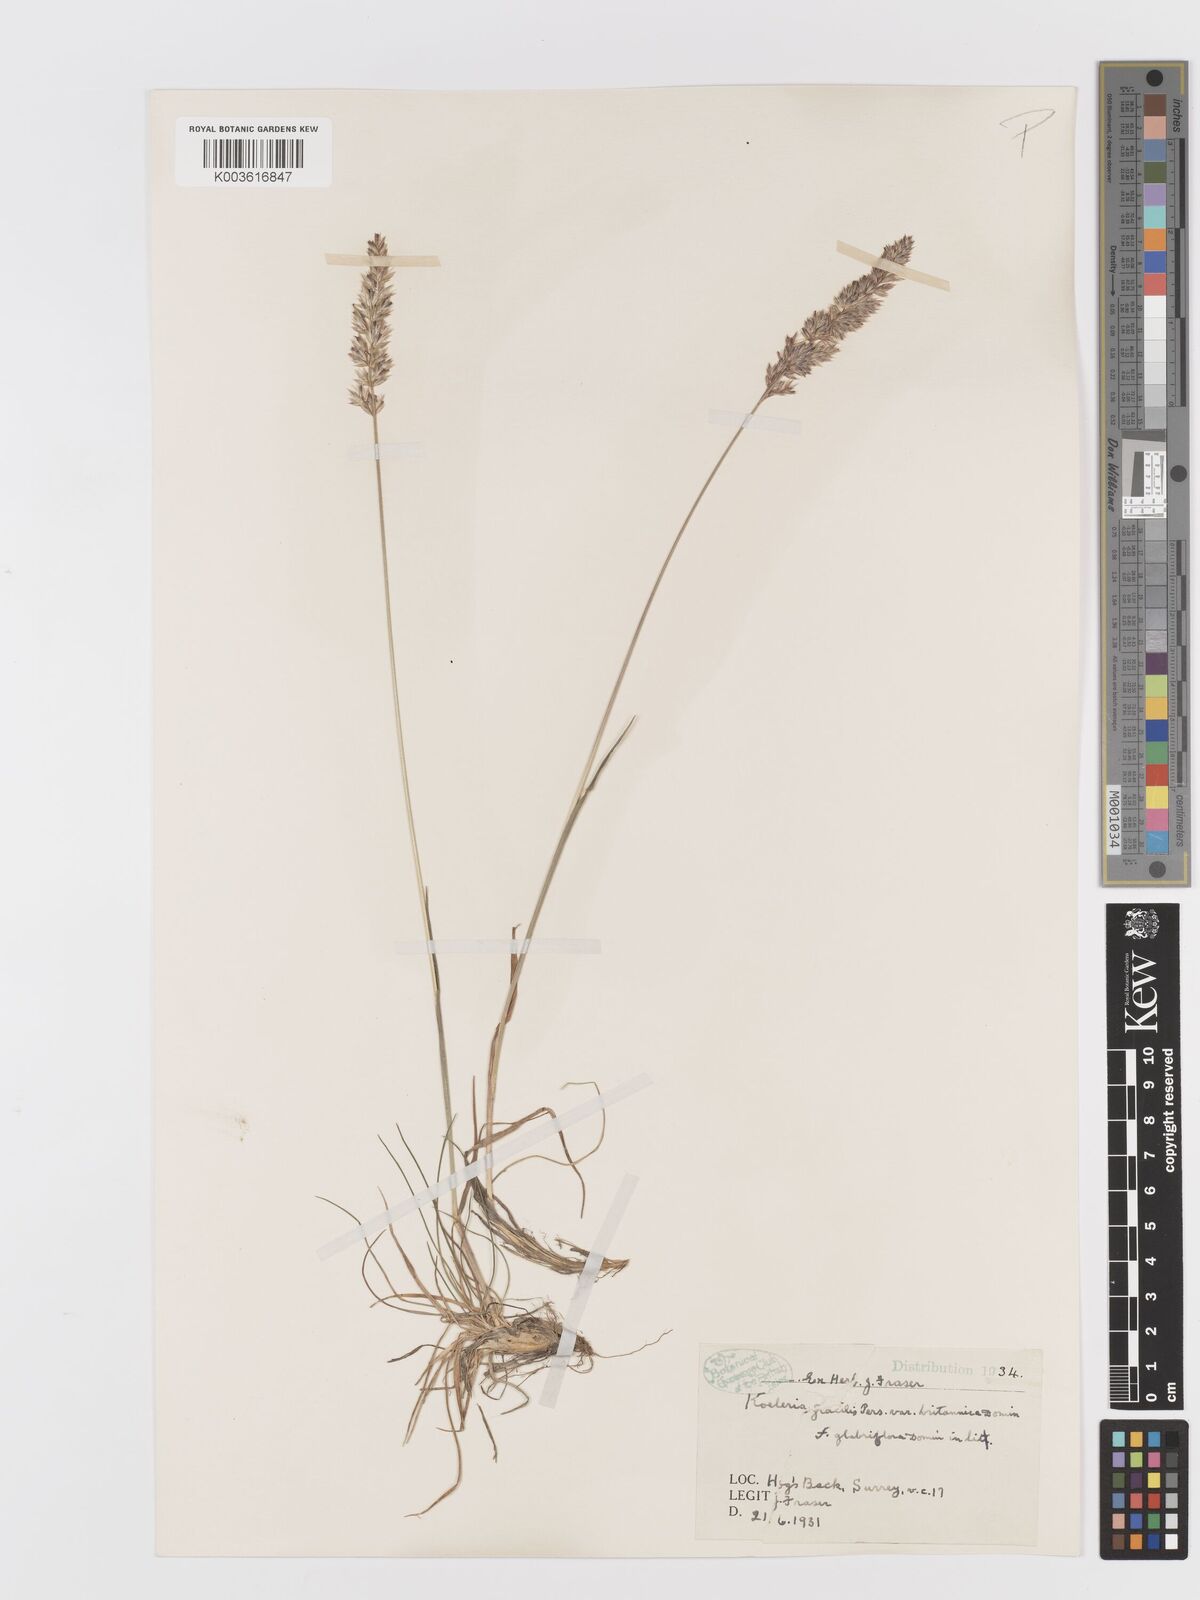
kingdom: Plantae
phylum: Tracheophyta
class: Liliopsida
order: Poales
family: Poaceae
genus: Koeleria
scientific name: Koeleria macrantha
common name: Crested hair-grass
